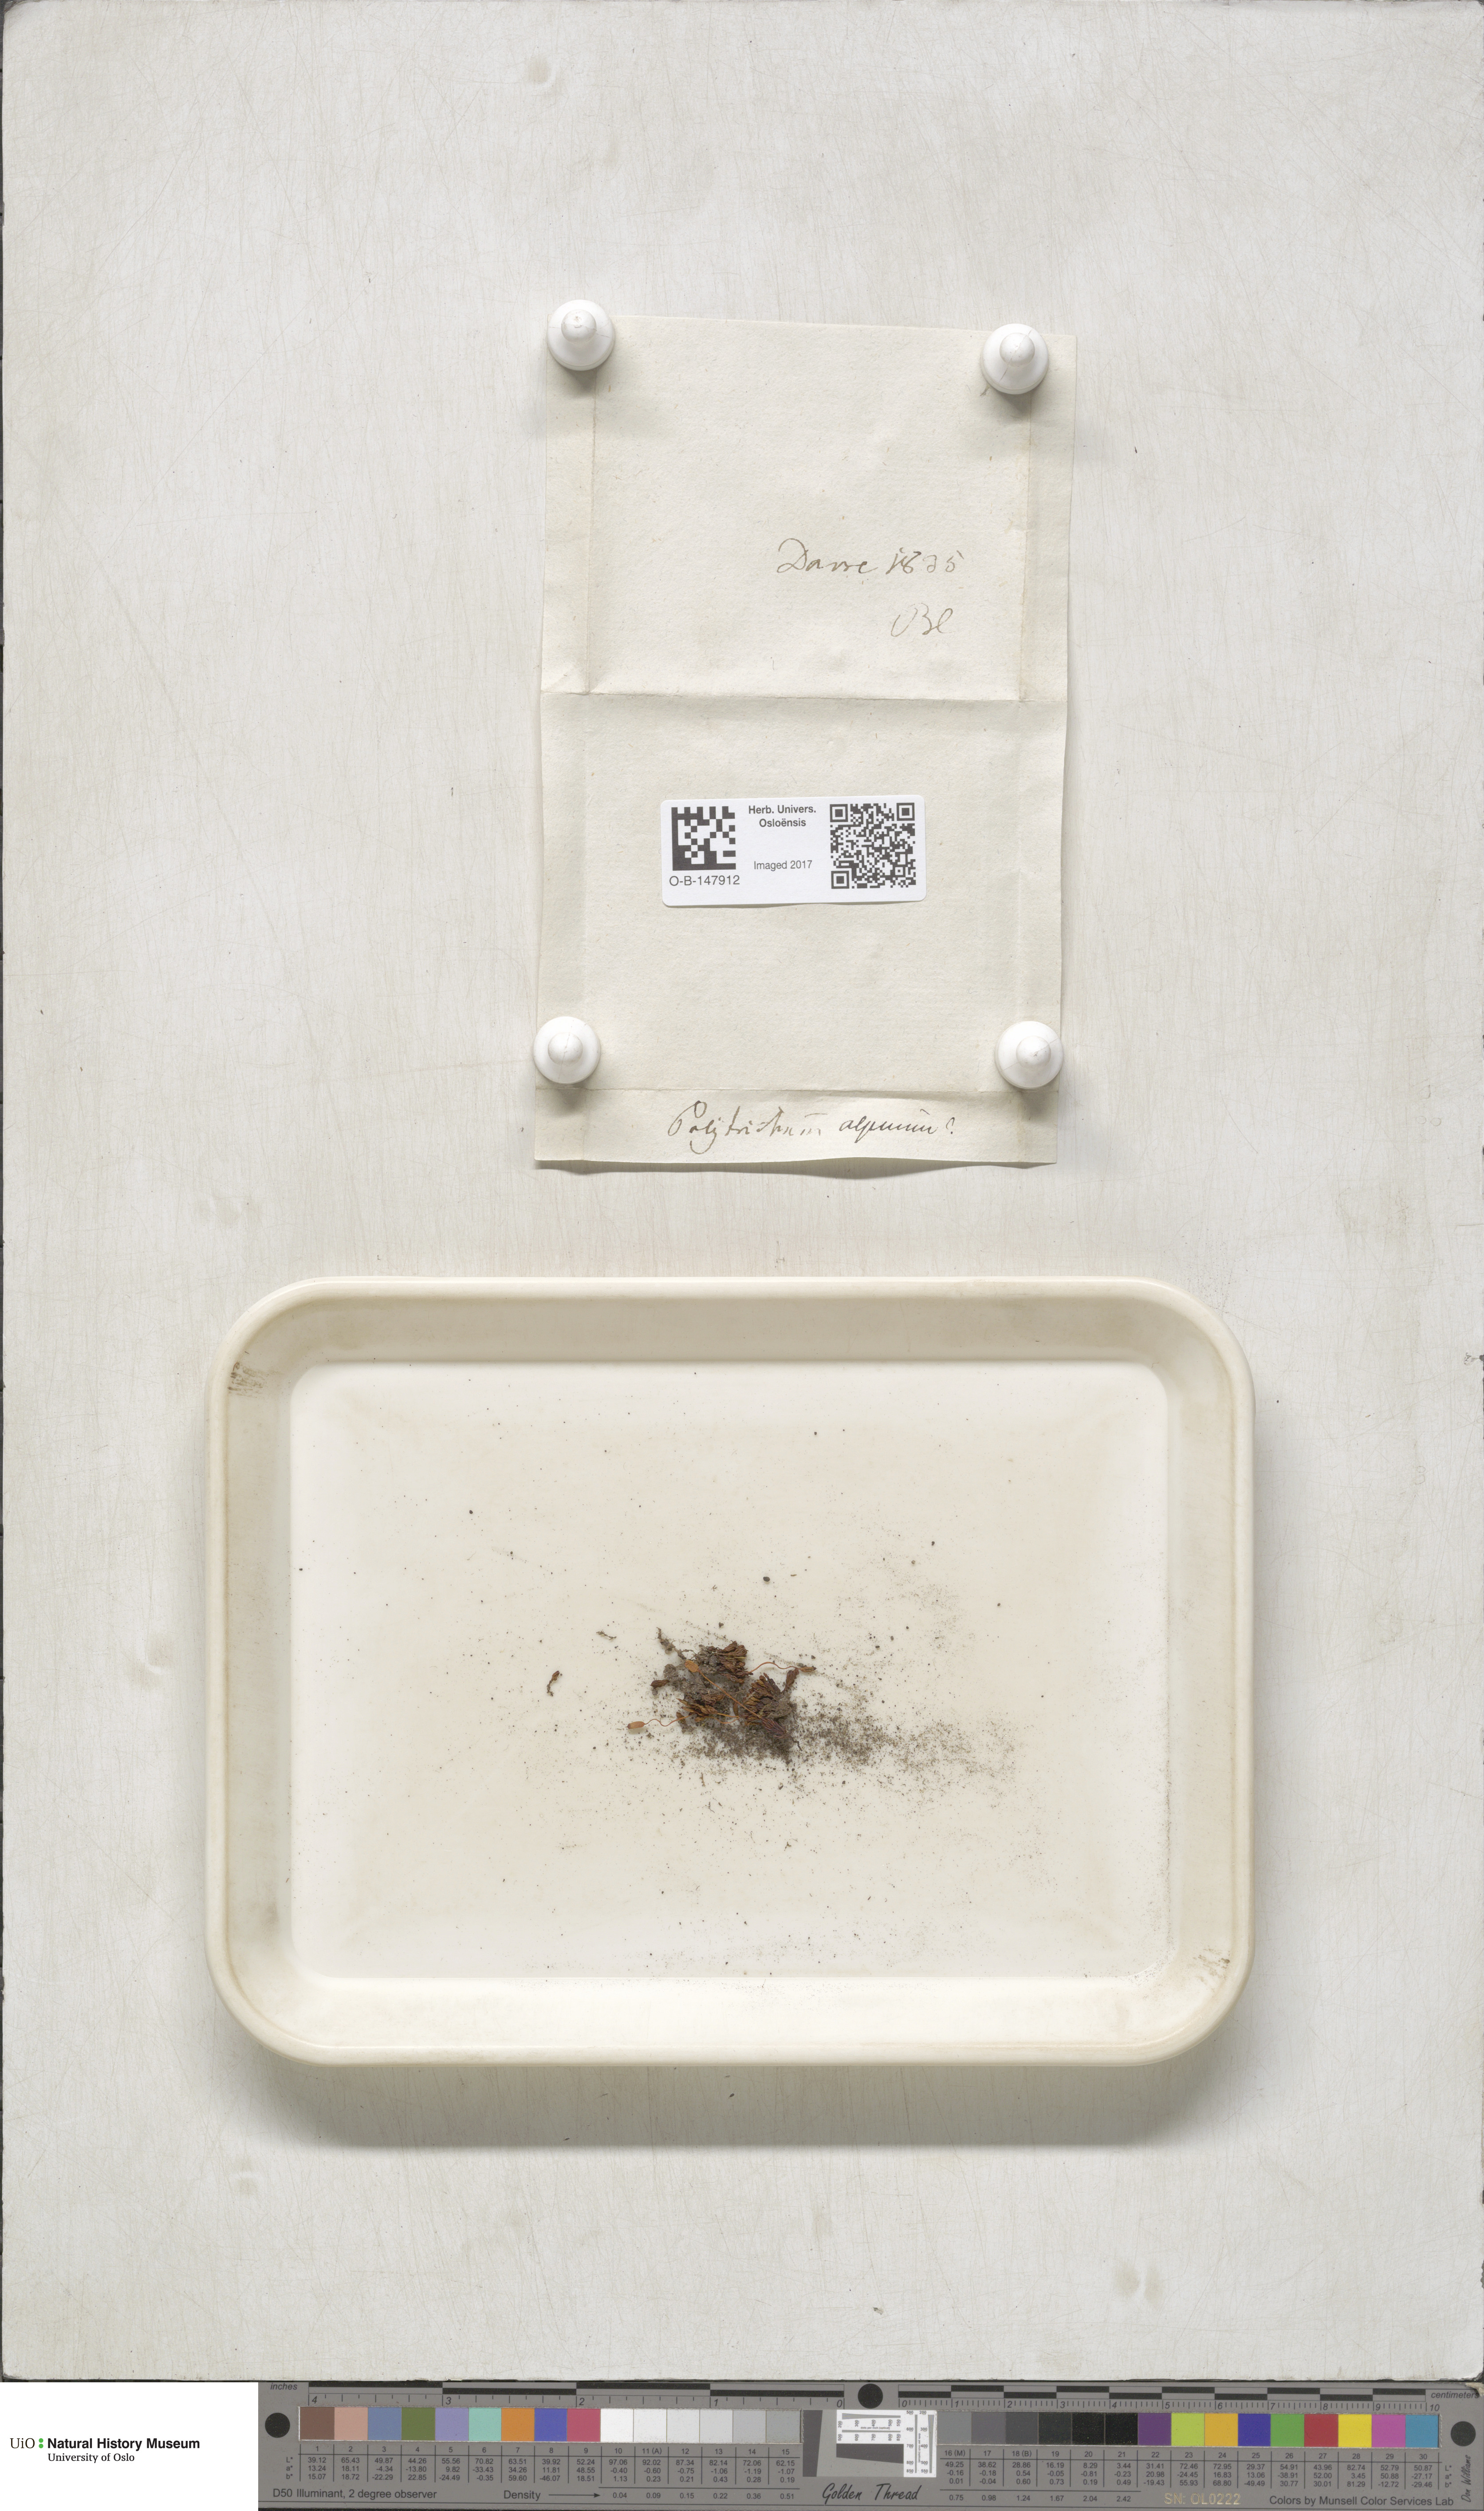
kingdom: Plantae
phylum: Bryophyta
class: Polytrichopsida
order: Polytrichales
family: Polytrichaceae
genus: Polytrichastrum
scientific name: Polytrichastrum alpinum
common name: Alpine haircap
